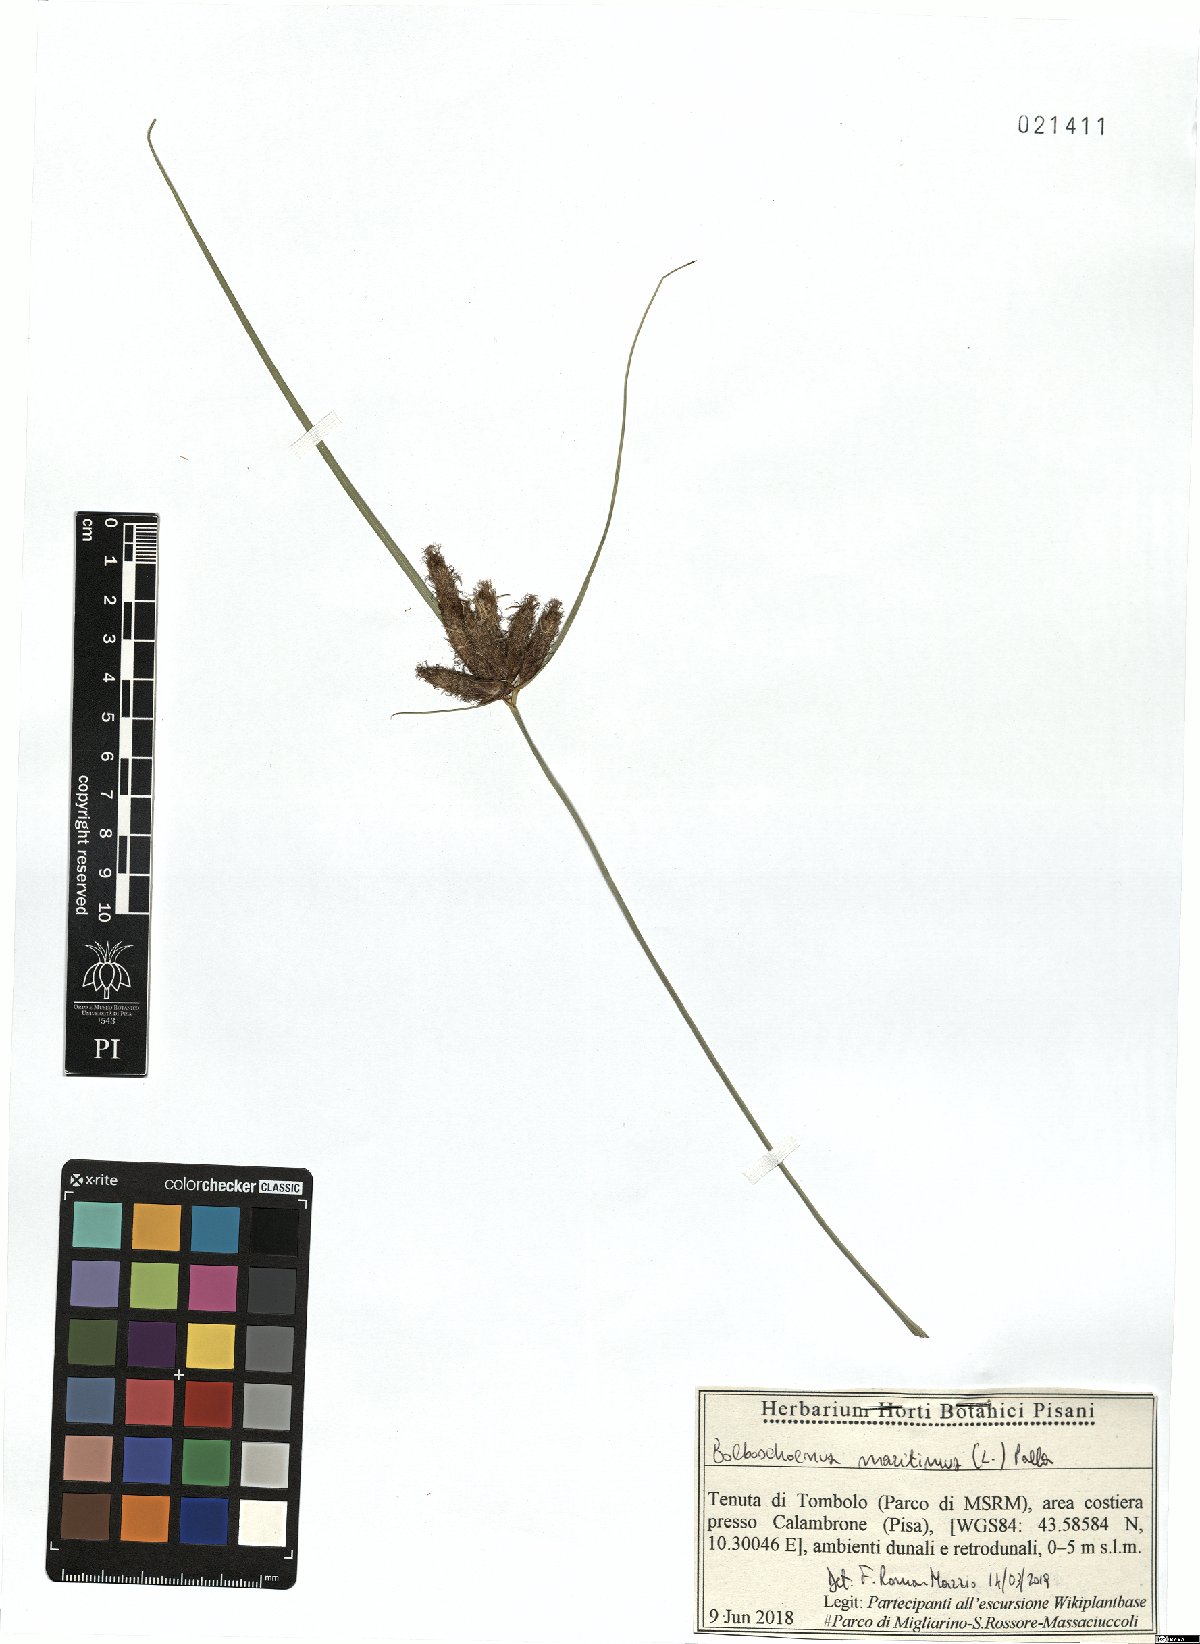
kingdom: Plantae
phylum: Tracheophyta
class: Liliopsida
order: Poales
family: Cyperaceae
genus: Bolboschoenus
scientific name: Bolboschoenus maritimus
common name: Sea club-rush
